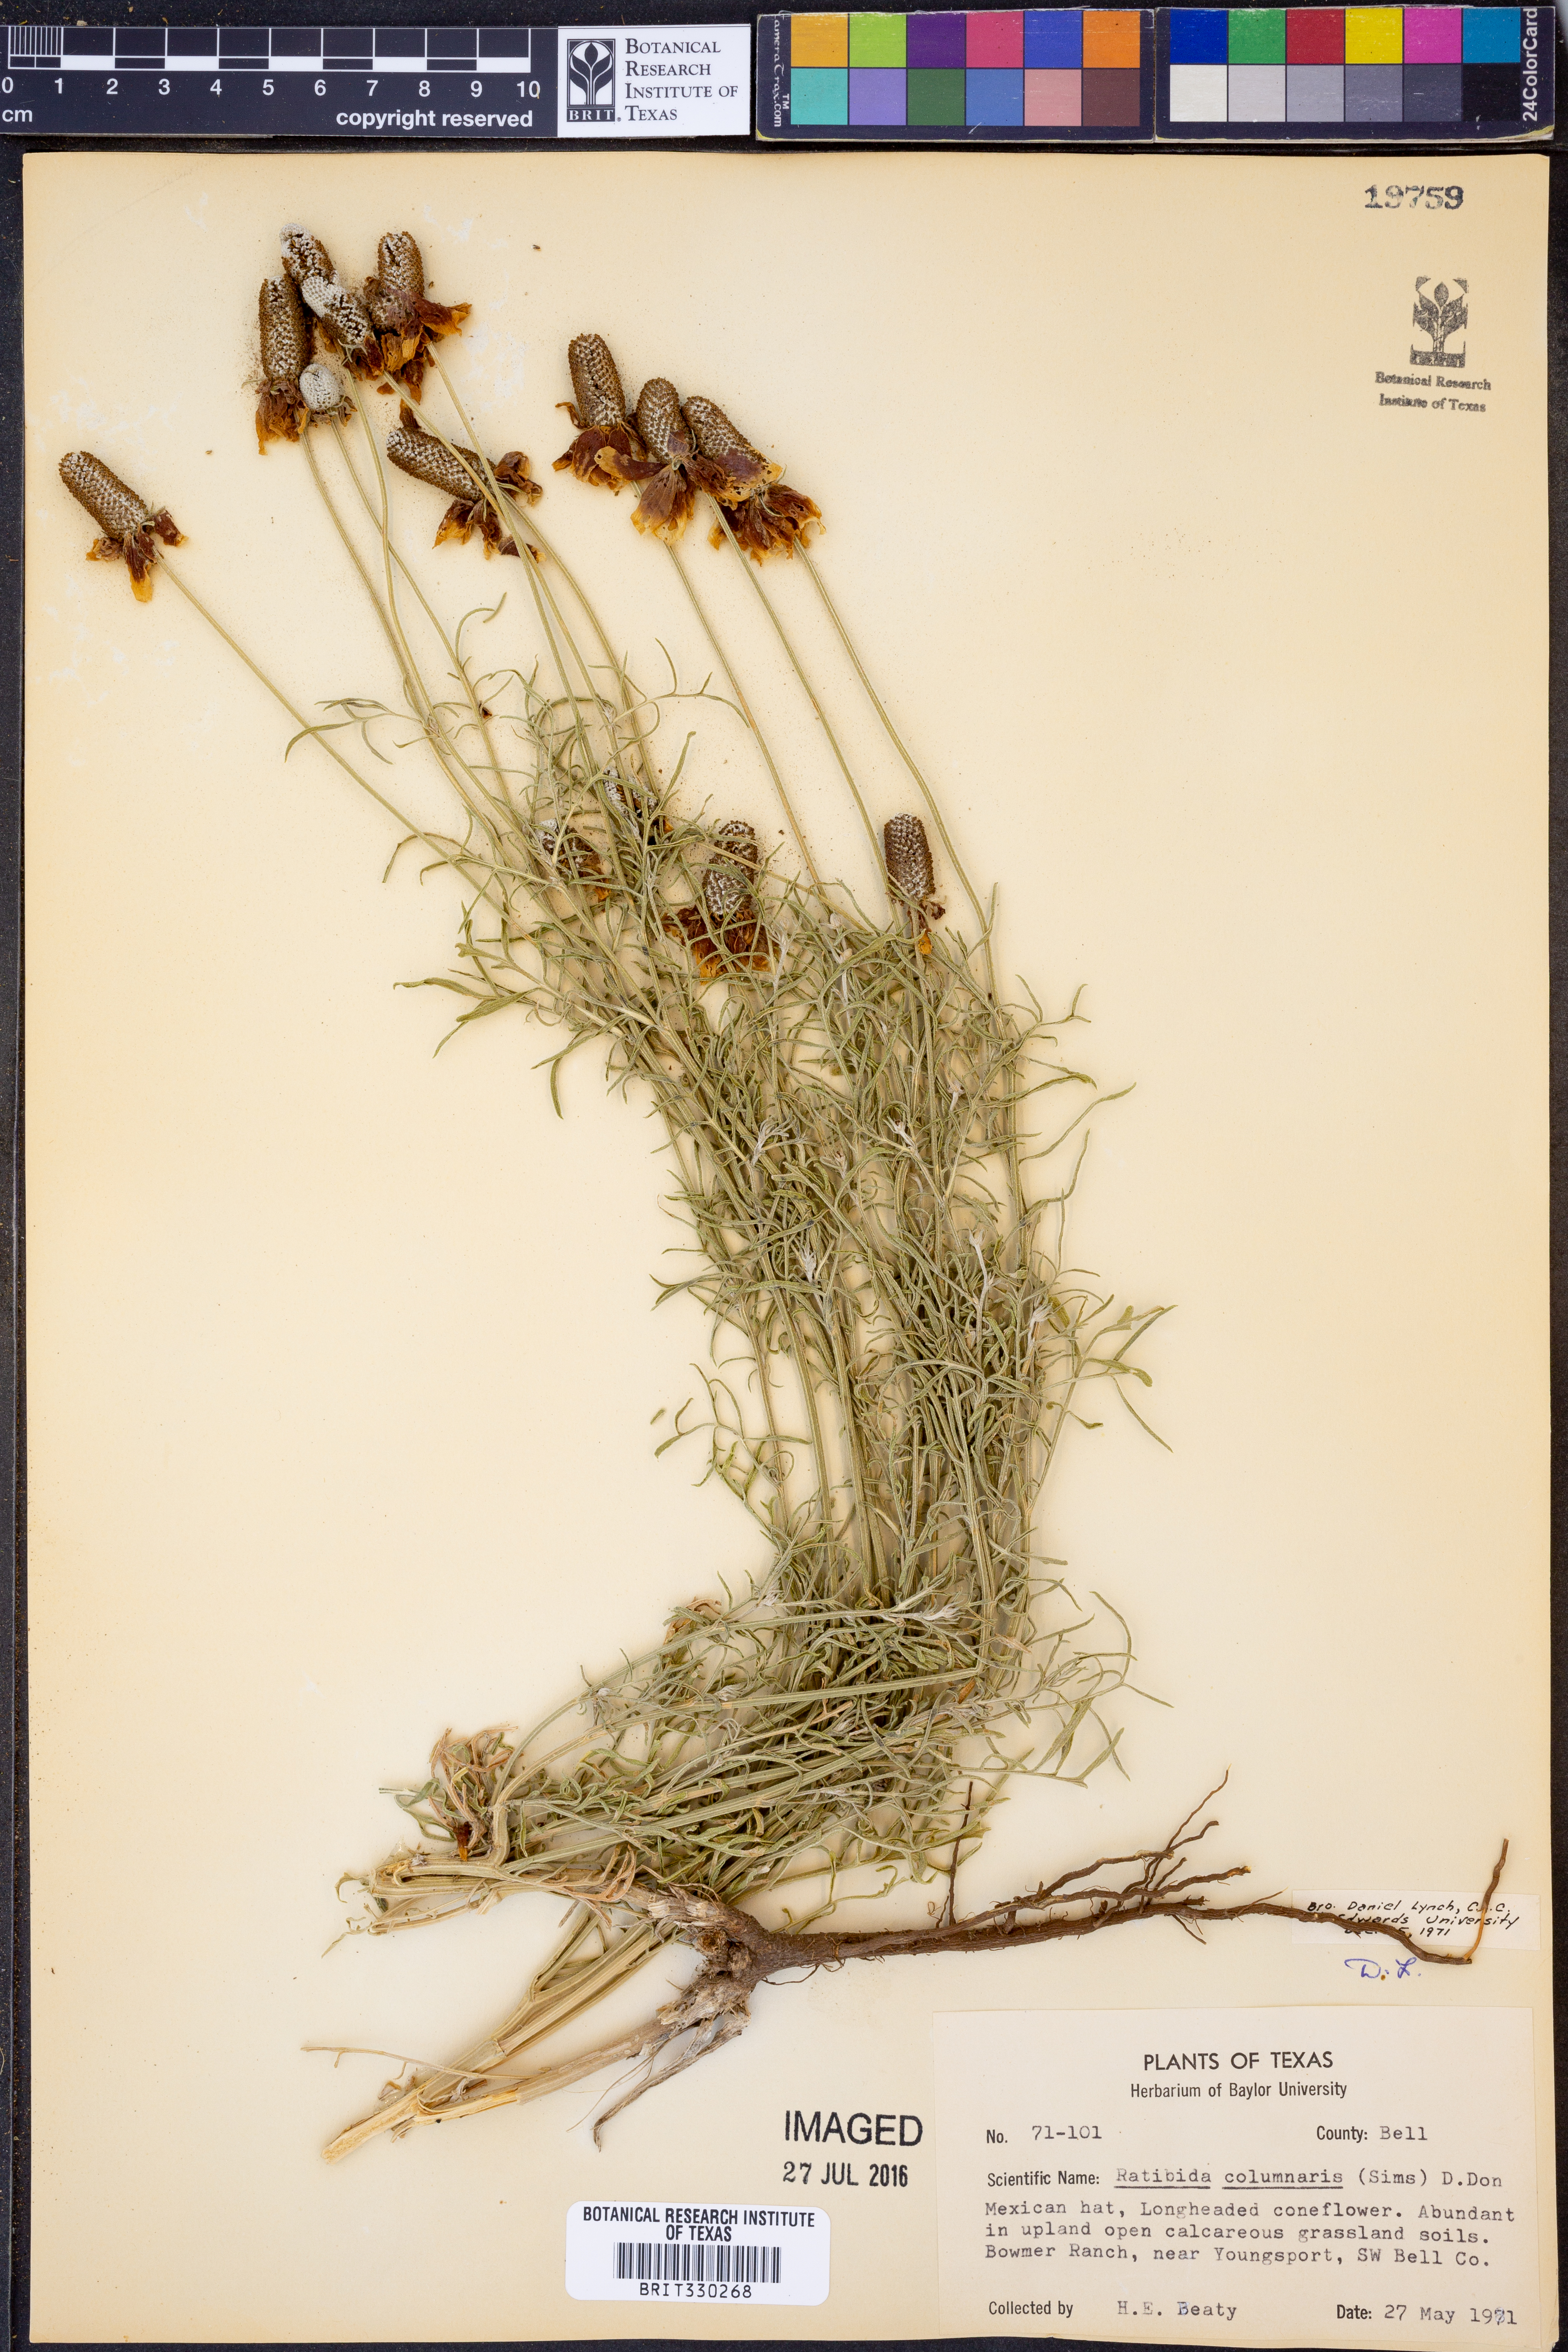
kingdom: Plantae
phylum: Tracheophyta
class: Magnoliopsida
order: Asterales
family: Asteraceae
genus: Ratibida
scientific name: Ratibida columnifera
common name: Prairie coneflower
